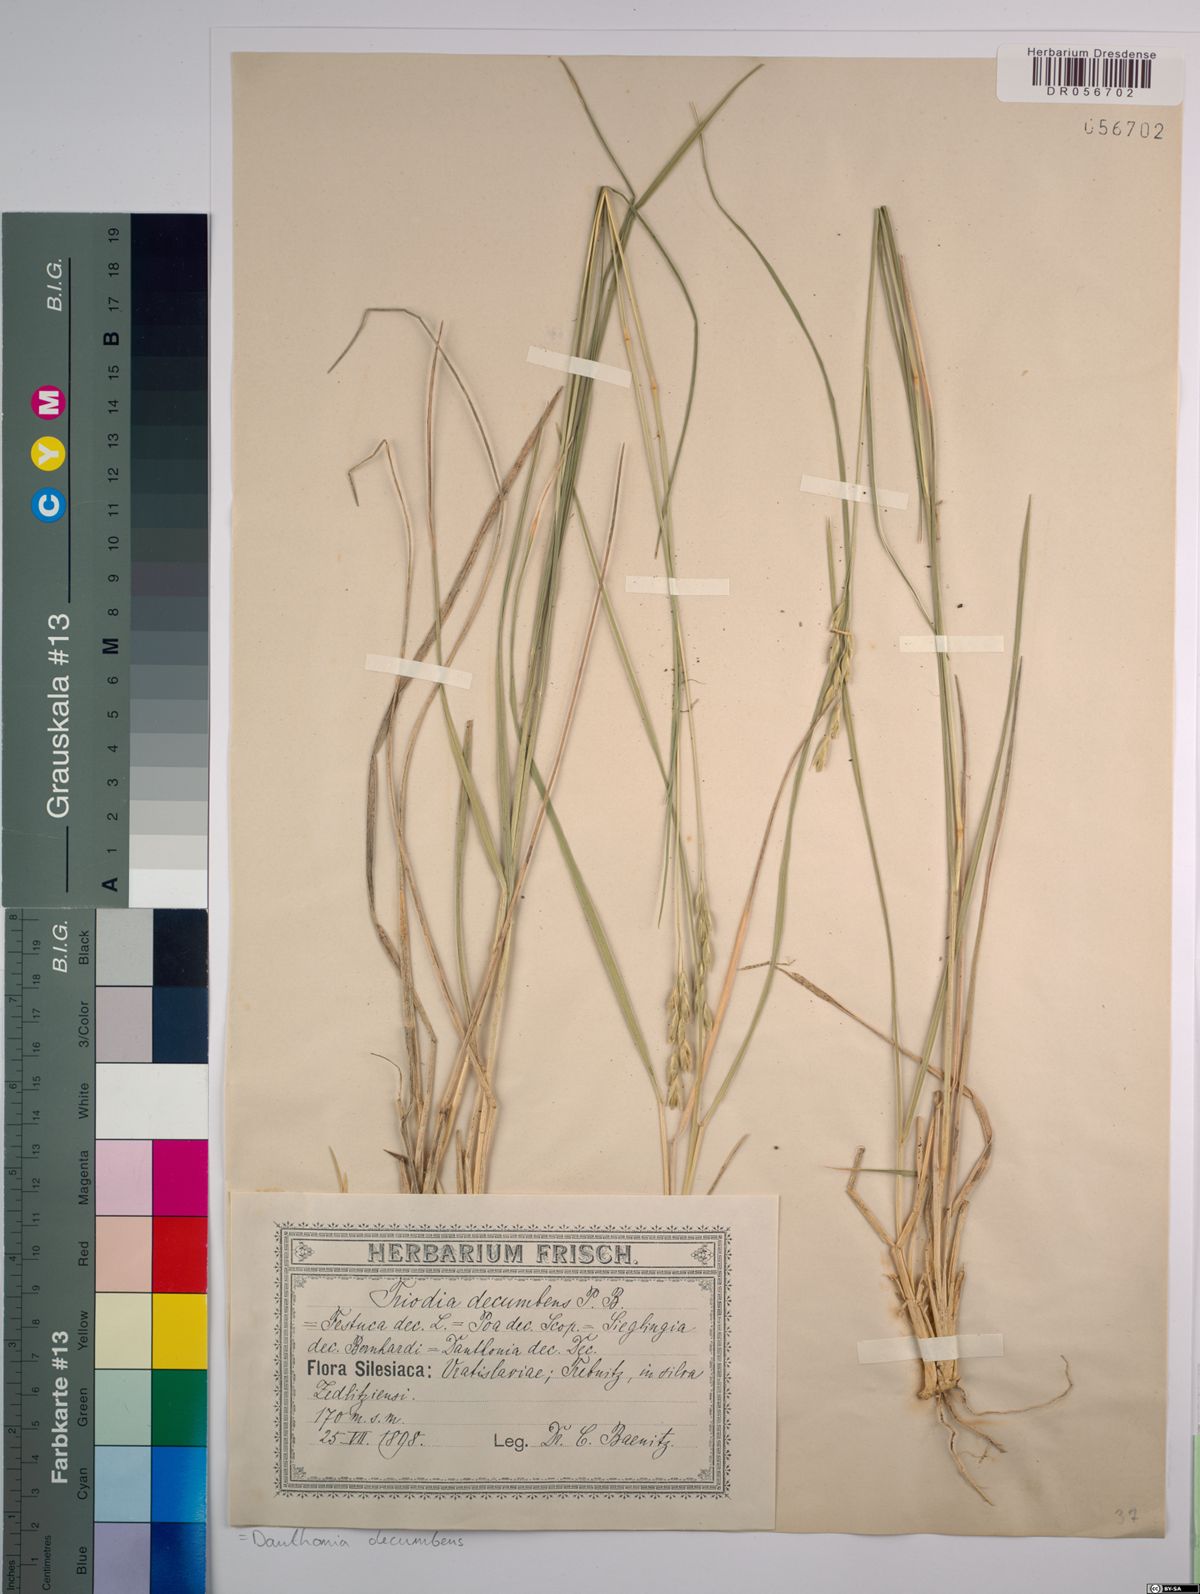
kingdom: Plantae
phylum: Tracheophyta
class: Liliopsida
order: Poales
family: Poaceae
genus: Danthonia
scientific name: Danthonia decumbens
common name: Common heathgrass
